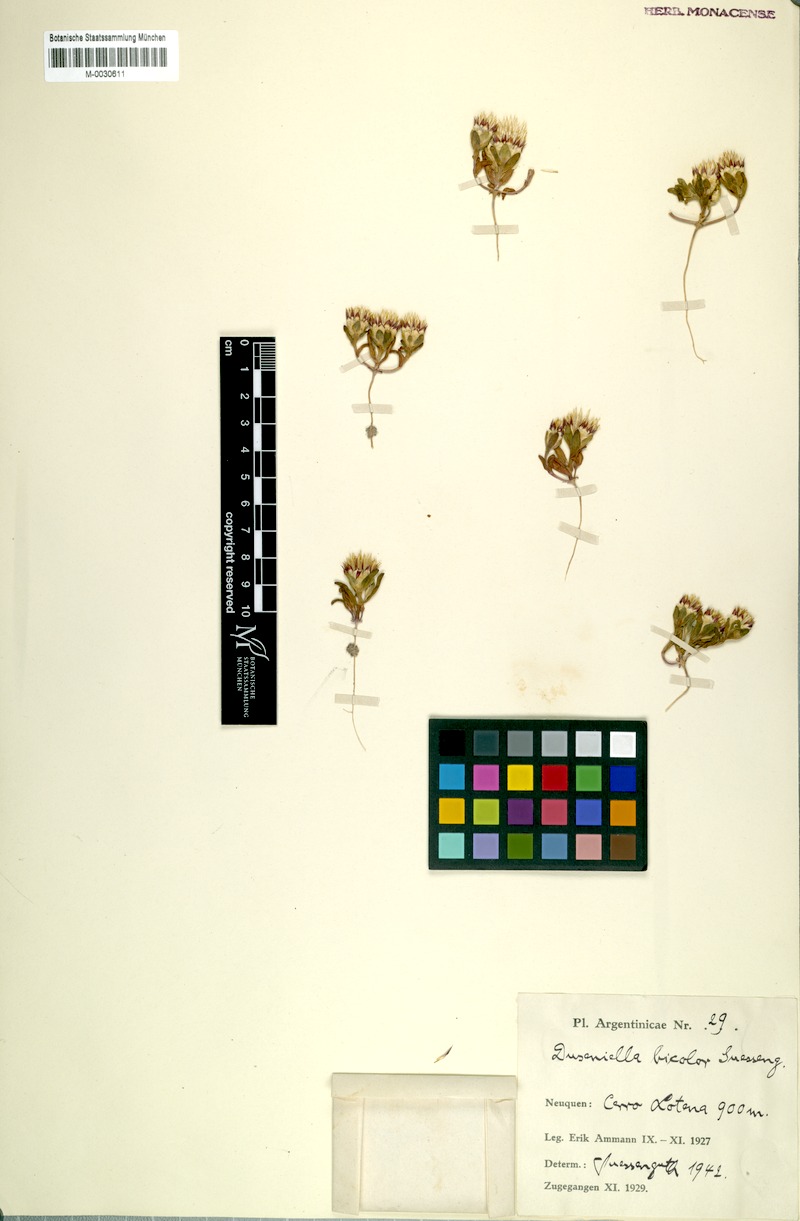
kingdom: Plantae
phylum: Tracheophyta
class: Magnoliopsida
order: Asterales
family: Asteraceae
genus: Duseniella
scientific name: Duseniella patagonica
